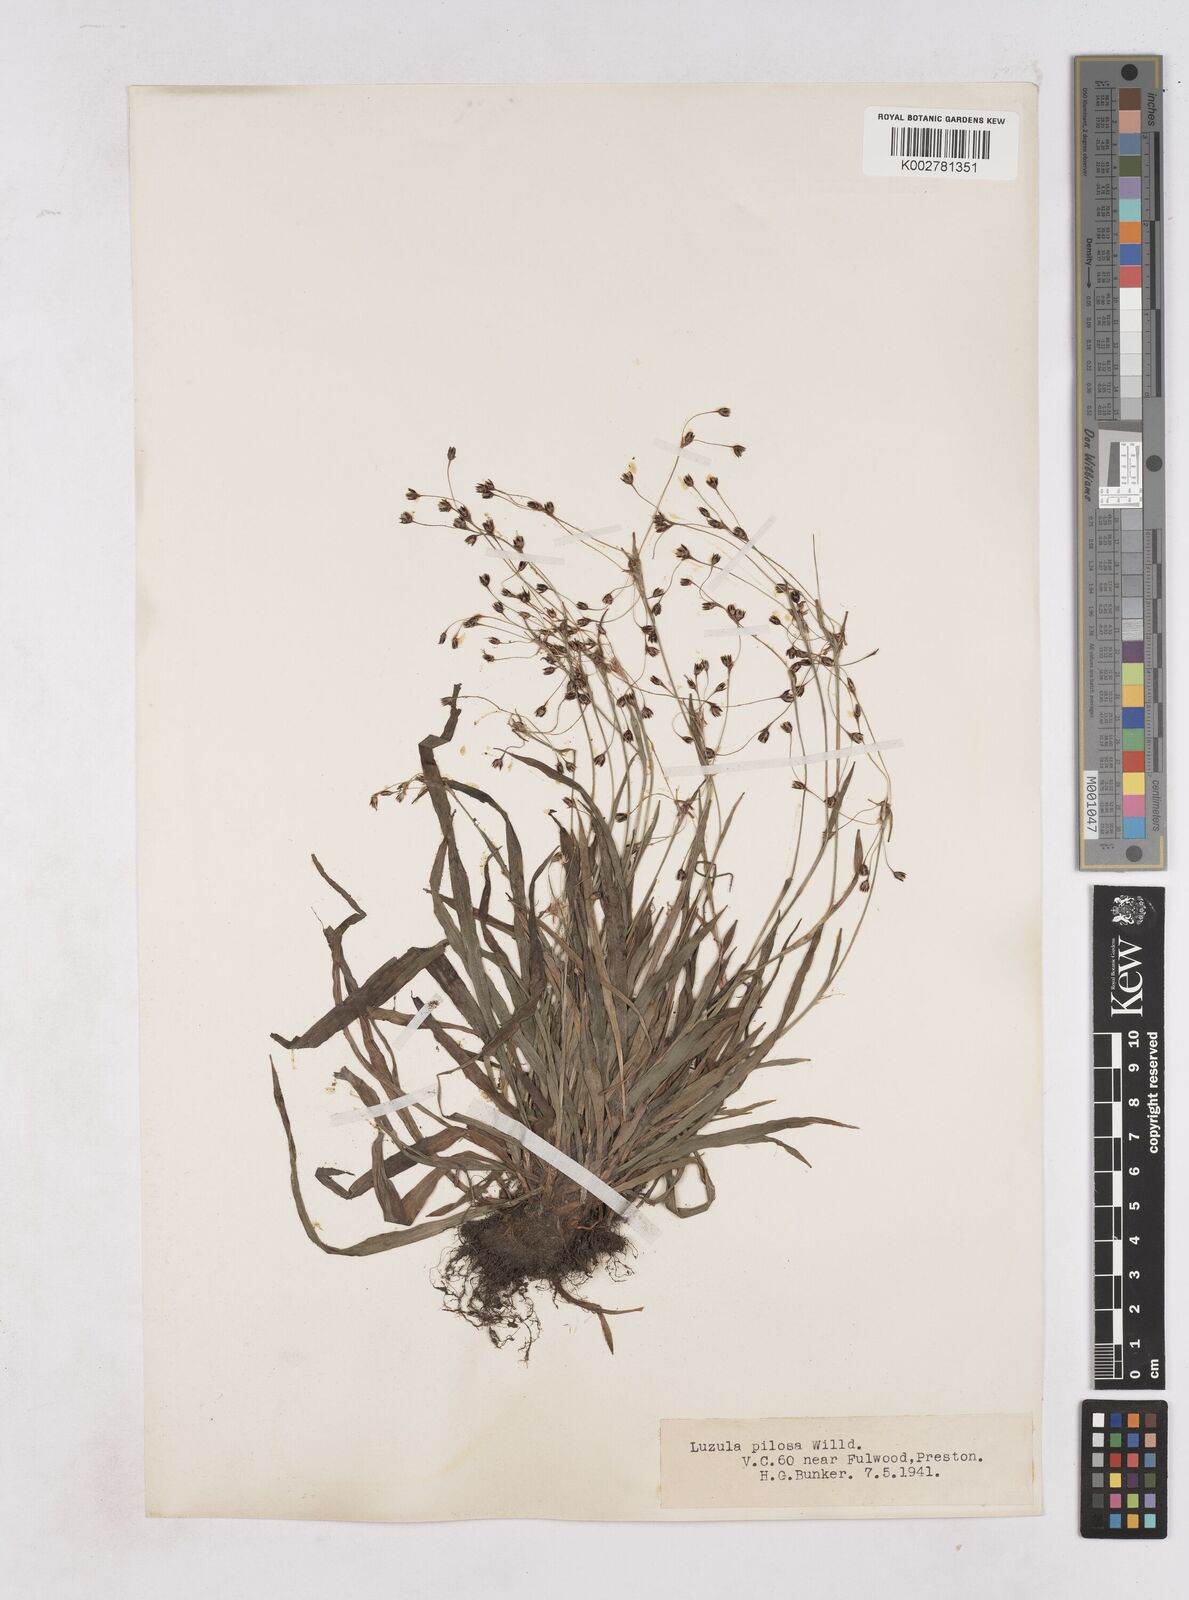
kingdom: Plantae
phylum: Tracheophyta
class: Liliopsida
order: Poales
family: Juncaceae
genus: Luzula
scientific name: Luzula pilosa
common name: Hairy wood-rush
